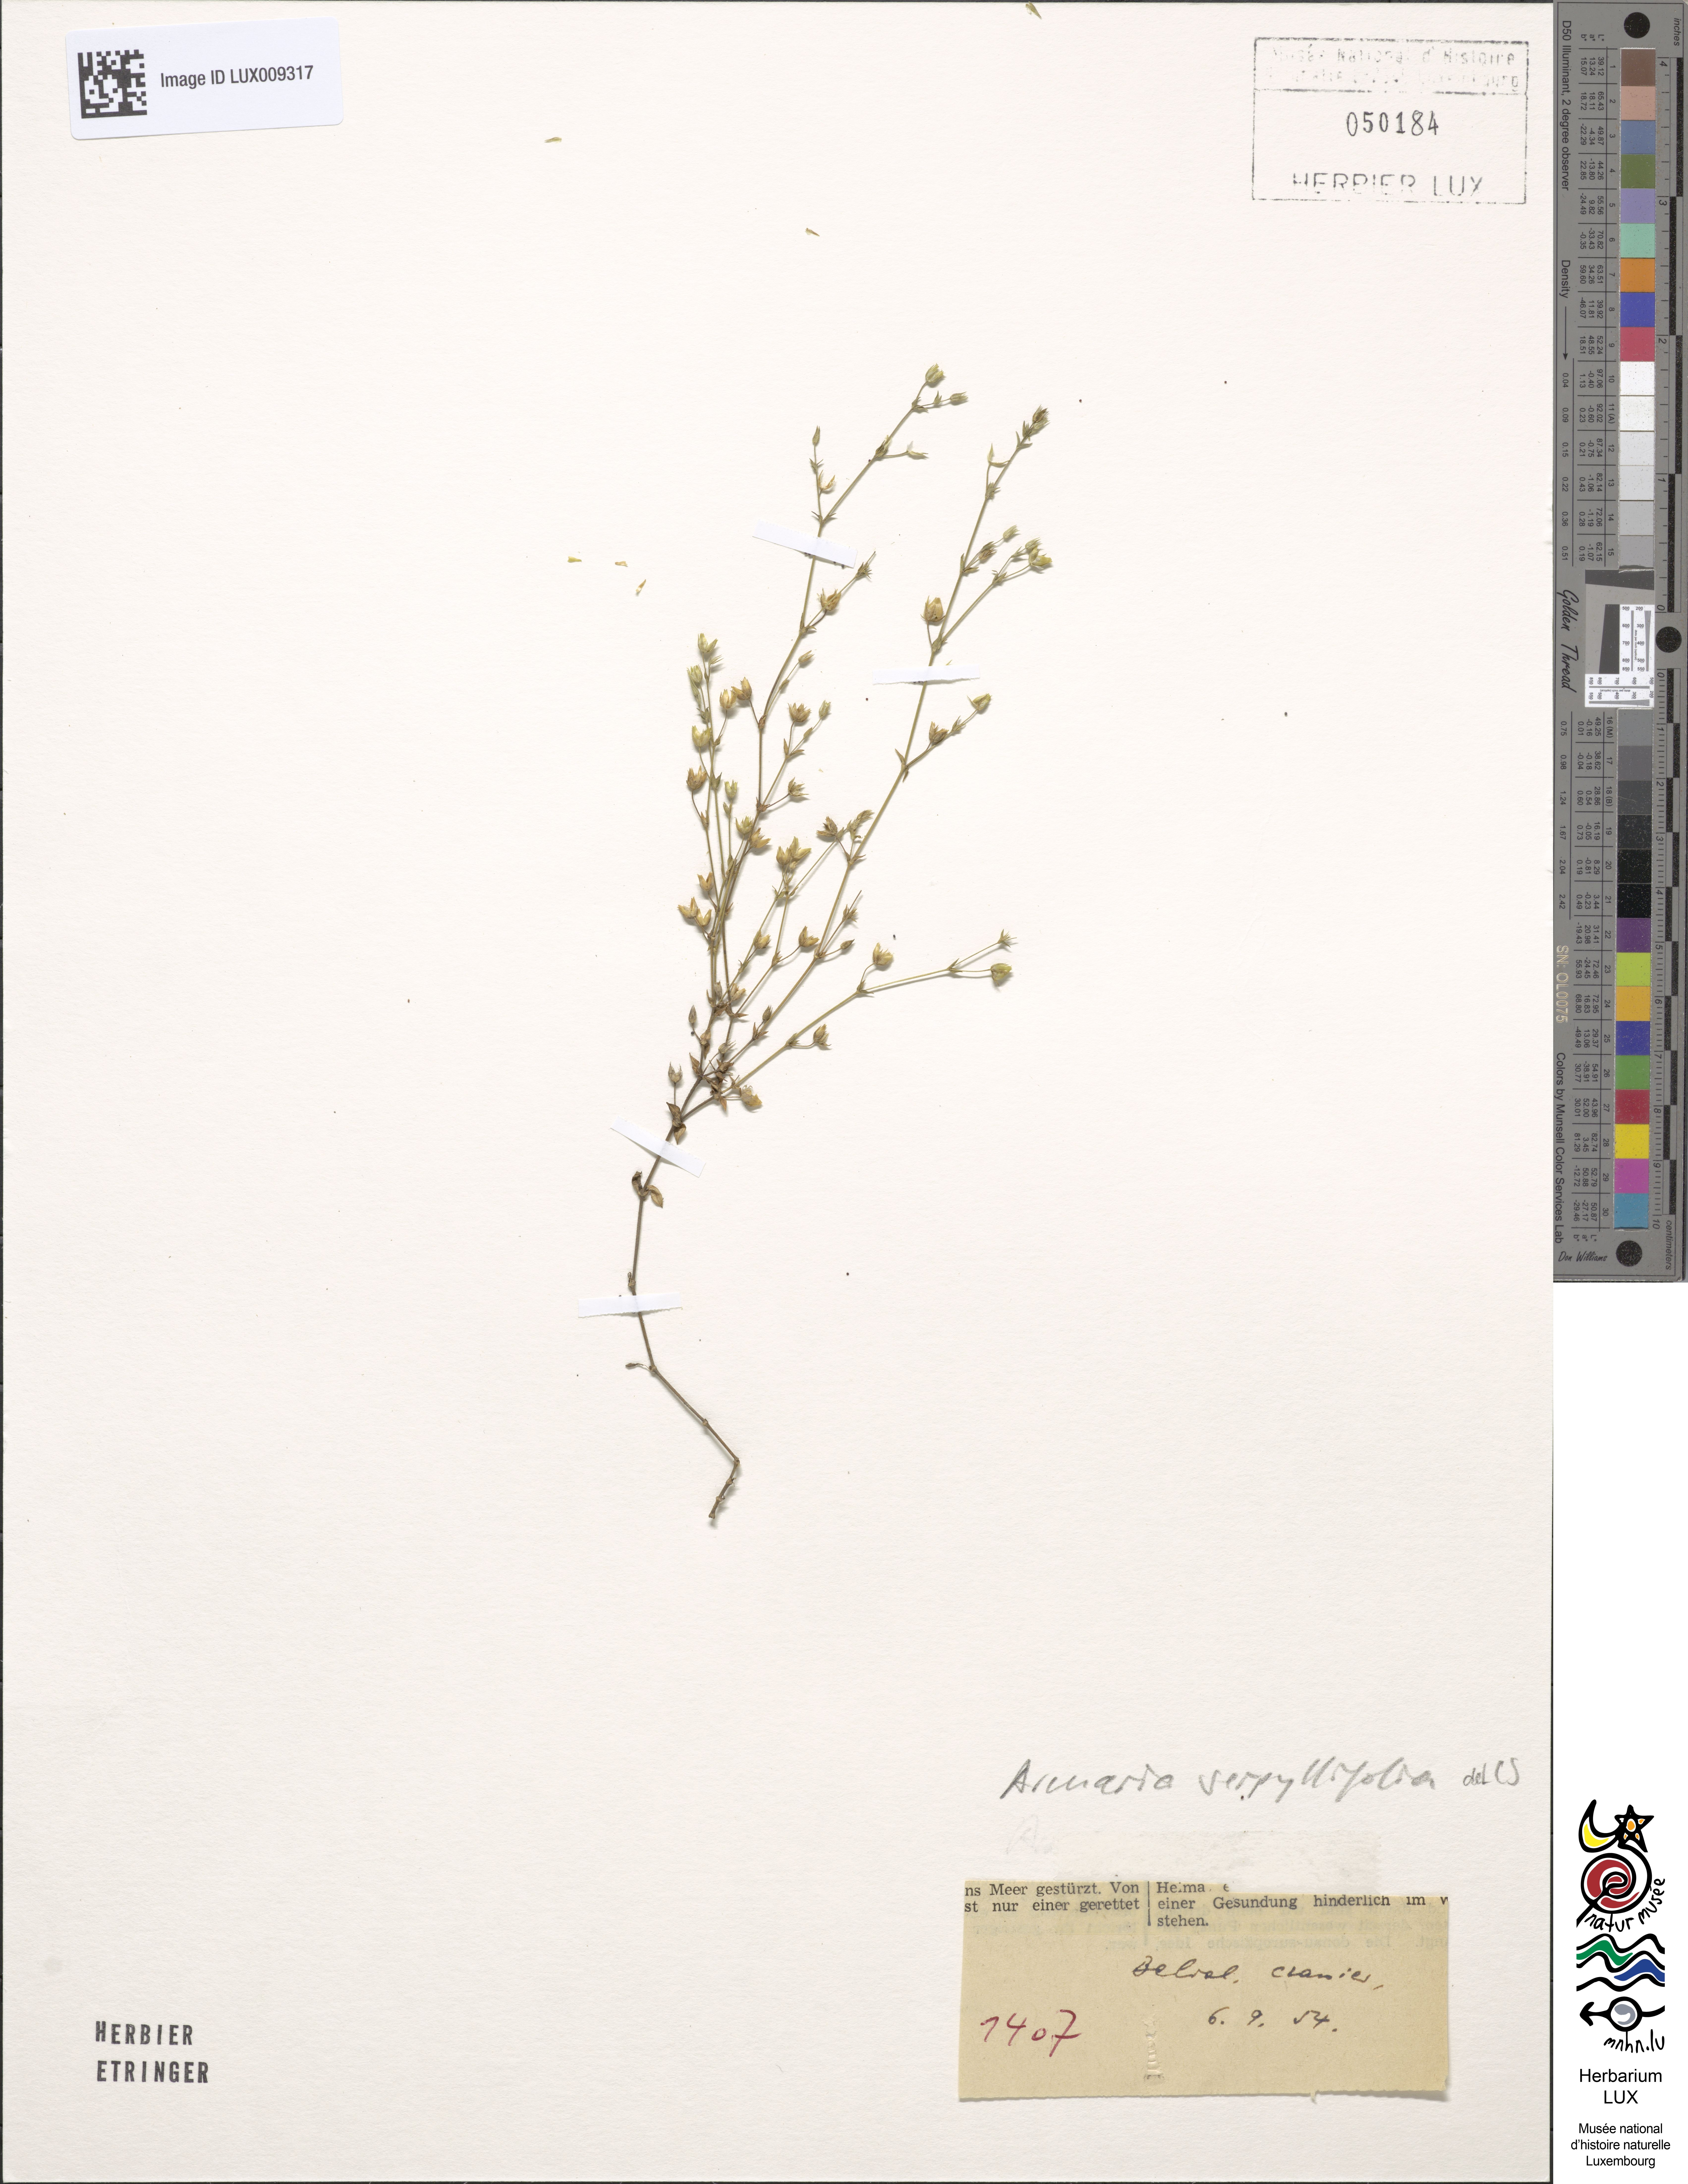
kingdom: Plantae
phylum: Tracheophyta
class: Magnoliopsida
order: Caryophyllales
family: Caryophyllaceae
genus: Arenaria
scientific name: Arenaria serpyllifolia
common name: Thyme-leaved sandwort
